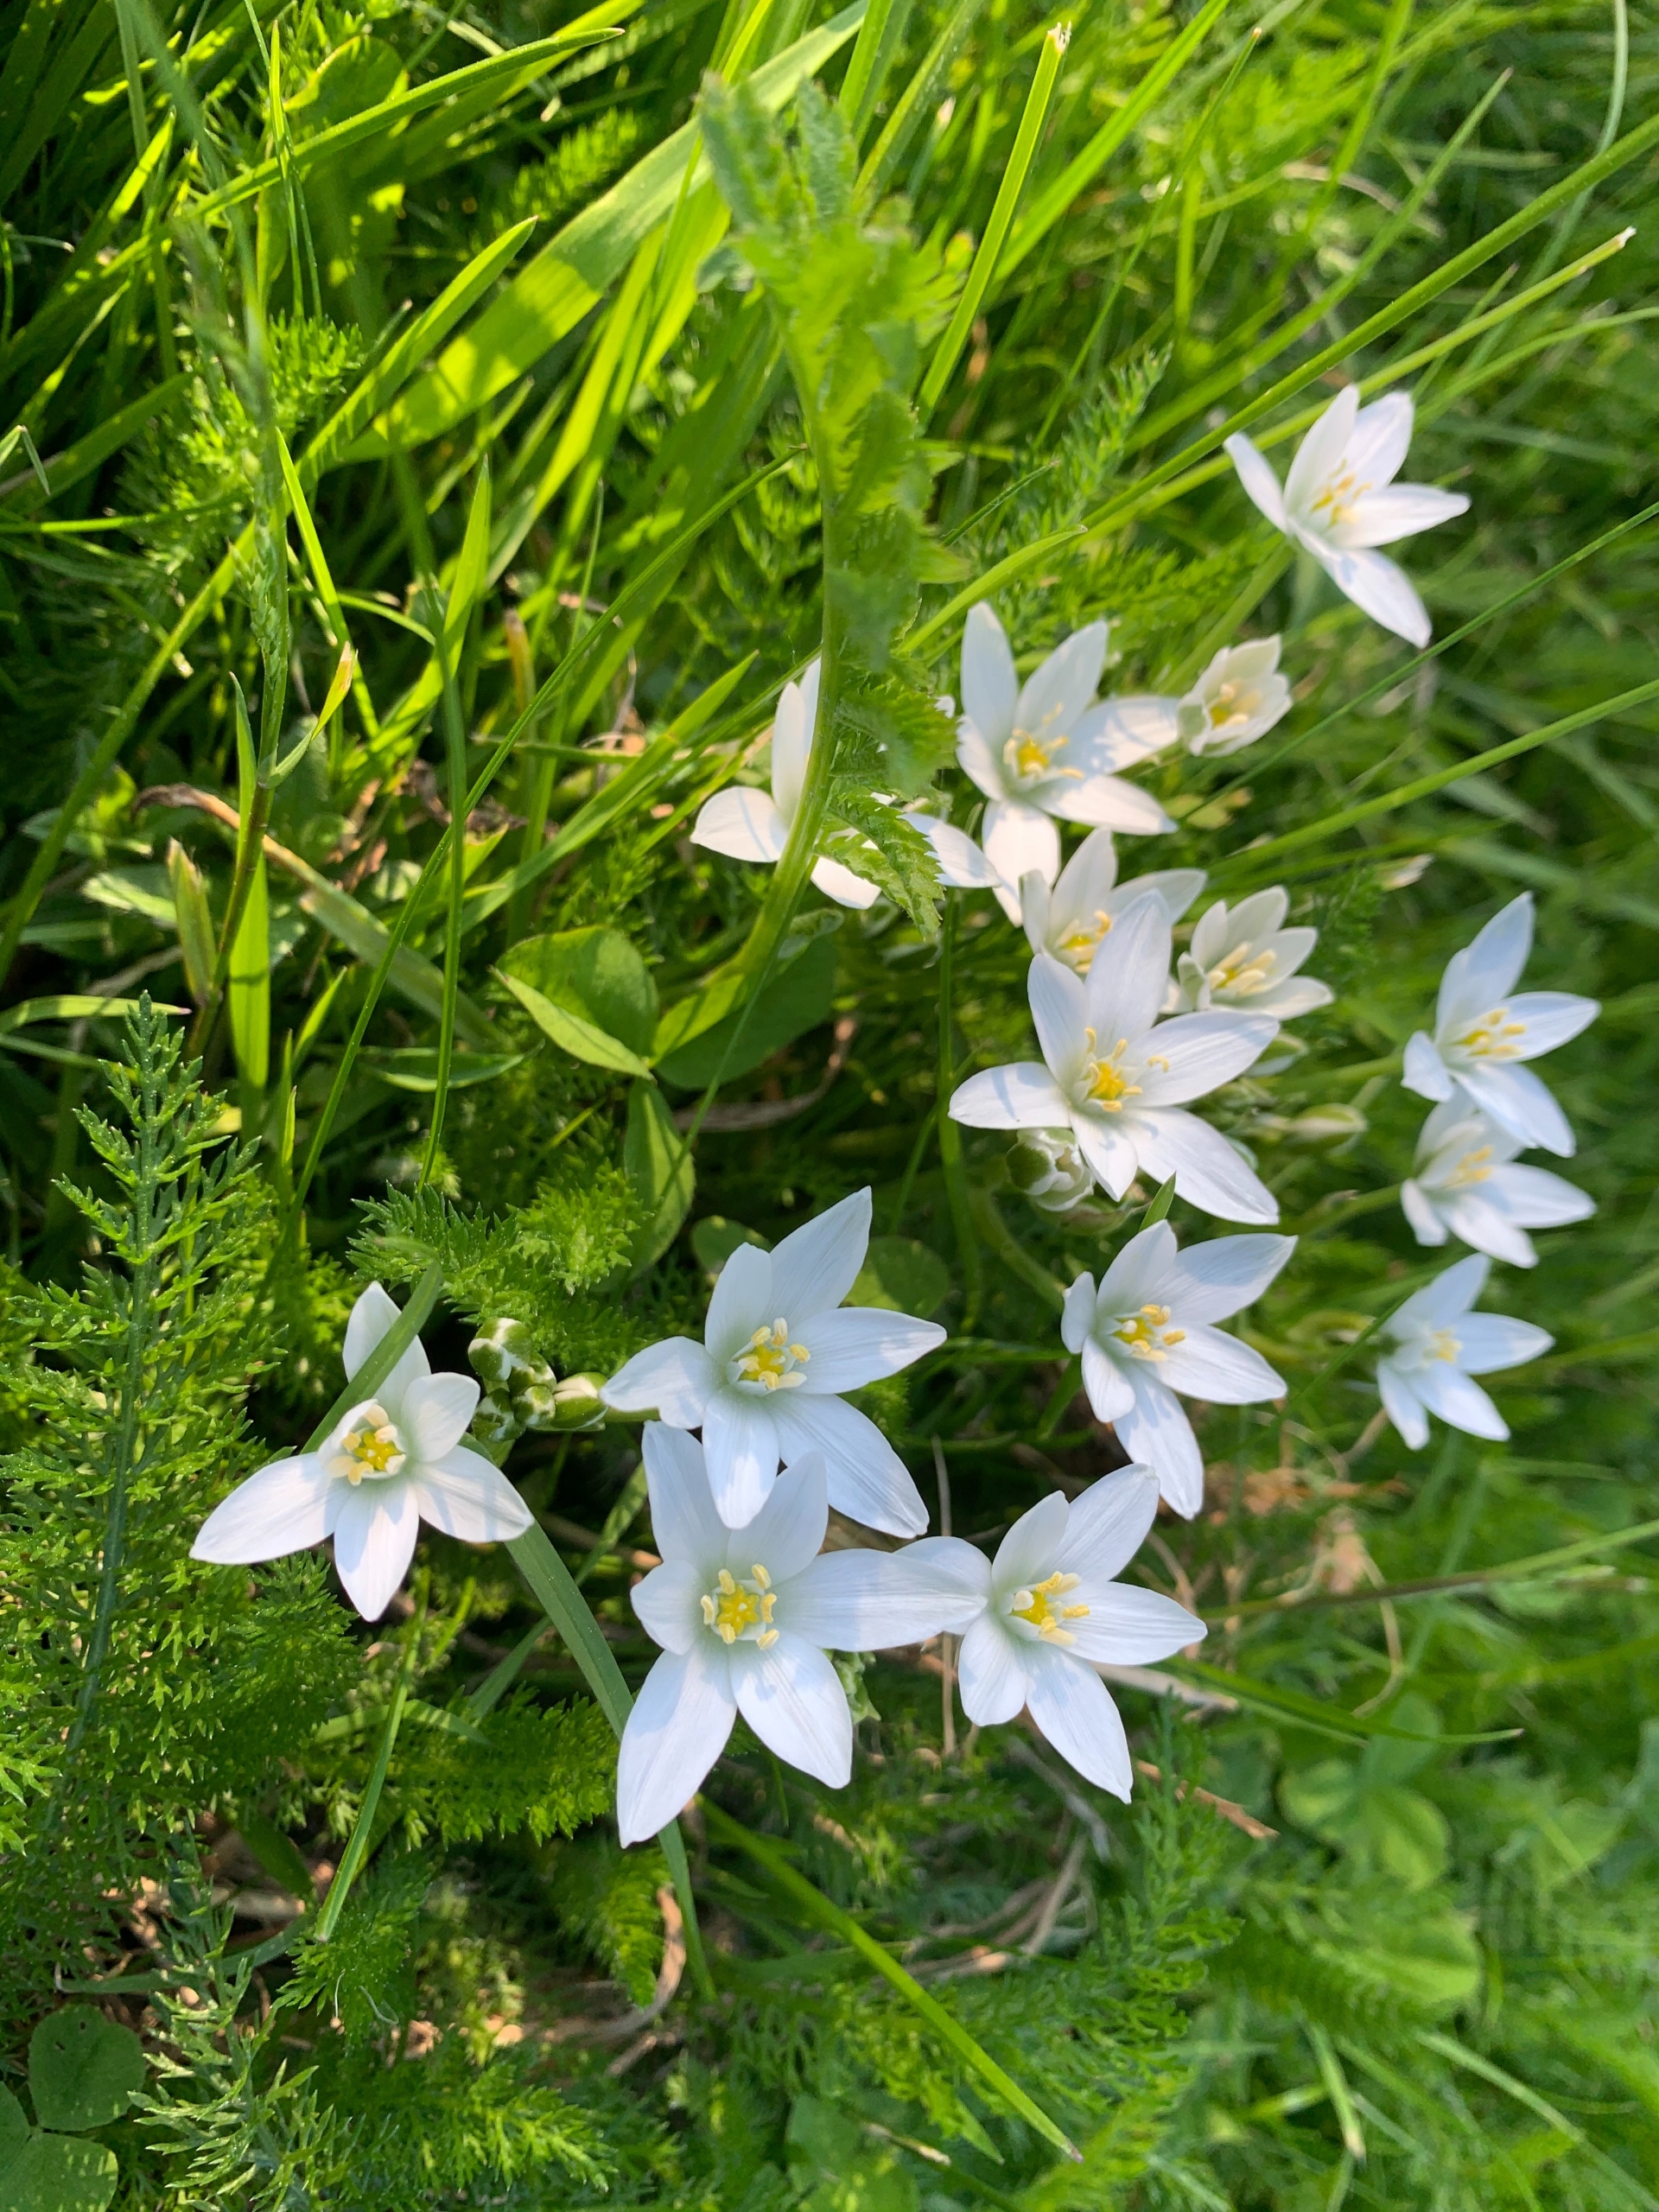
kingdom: Plantae
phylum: Tracheophyta
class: Liliopsida
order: Asparagales
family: Asparagaceae
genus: Ornithogalum
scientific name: Ornithogalum umbellatum
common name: Kost-fuglemælk
